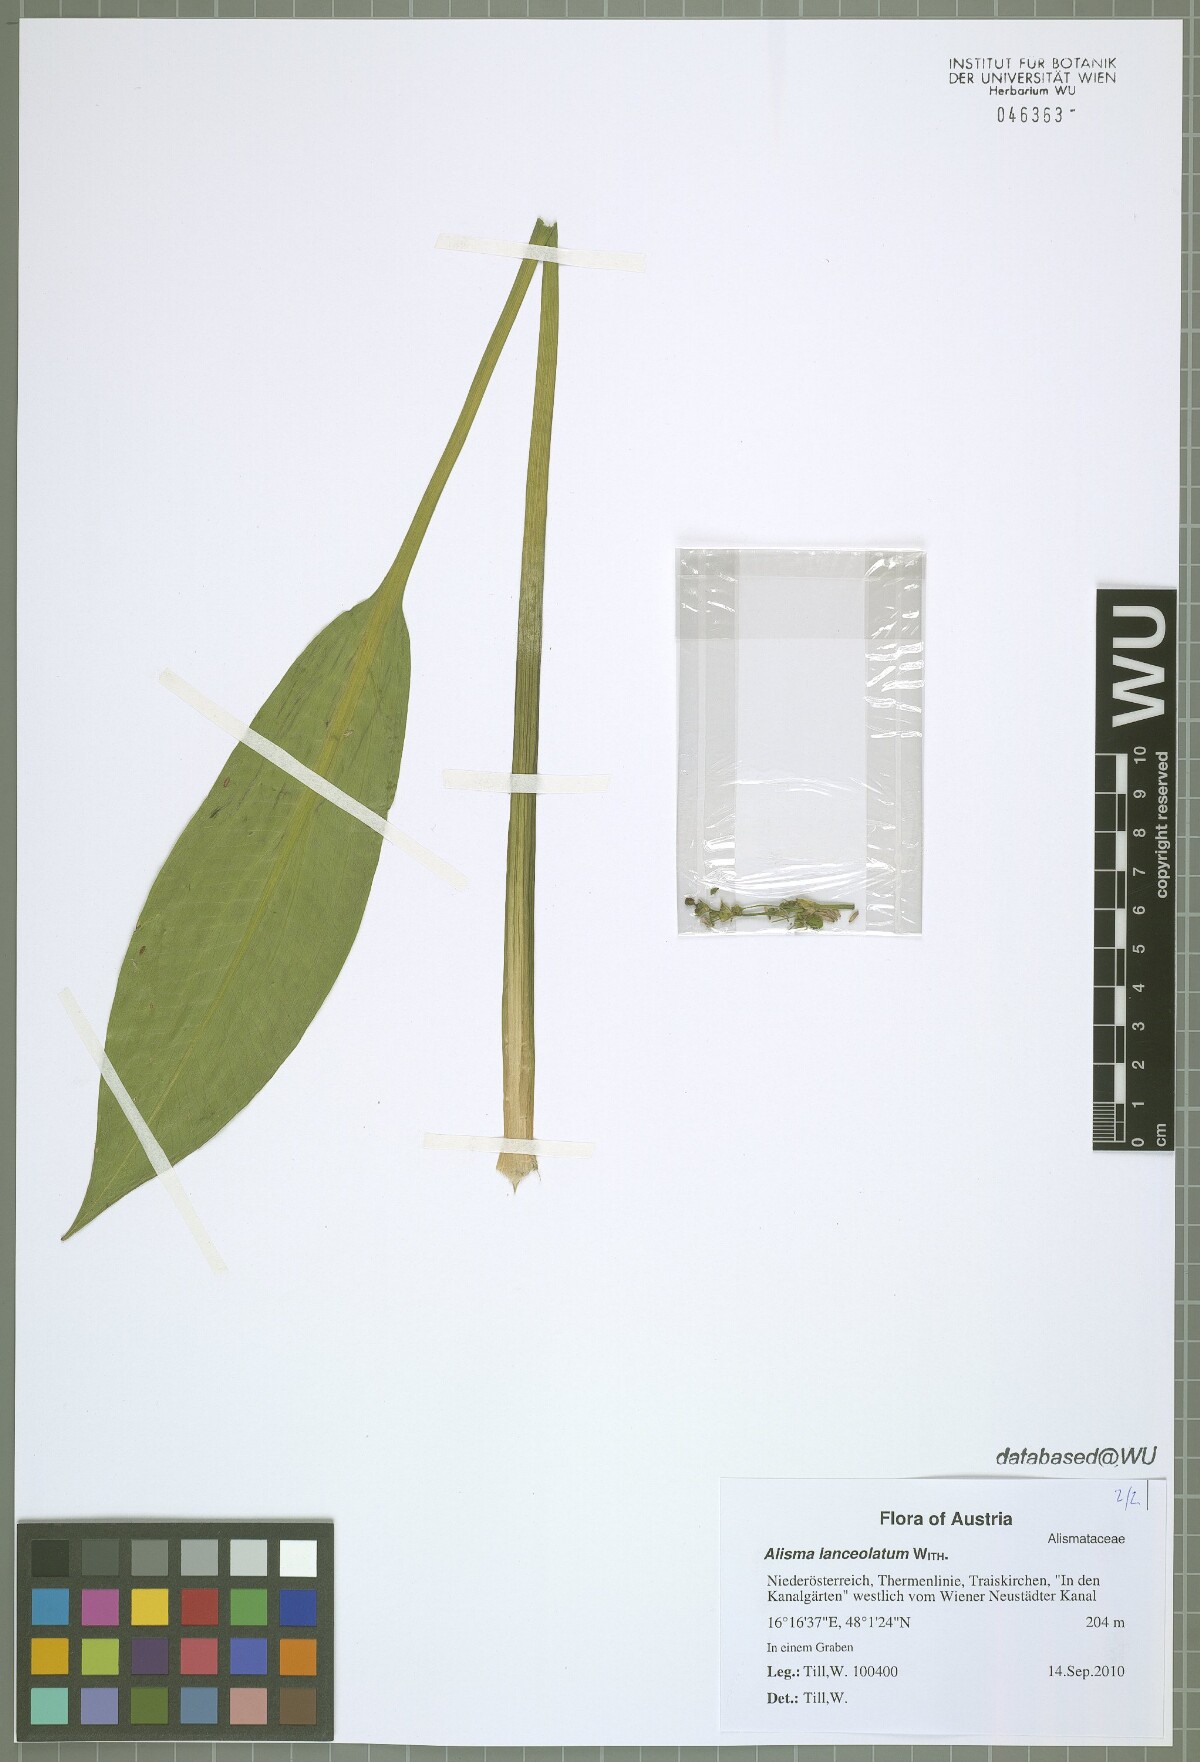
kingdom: Plantae
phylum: Tracheophyta
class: Liliopsida
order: Alismatales
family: Alismataceae
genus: Alisma
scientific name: Alisma lanceolatum
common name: Narrow-leaved water-plantain
